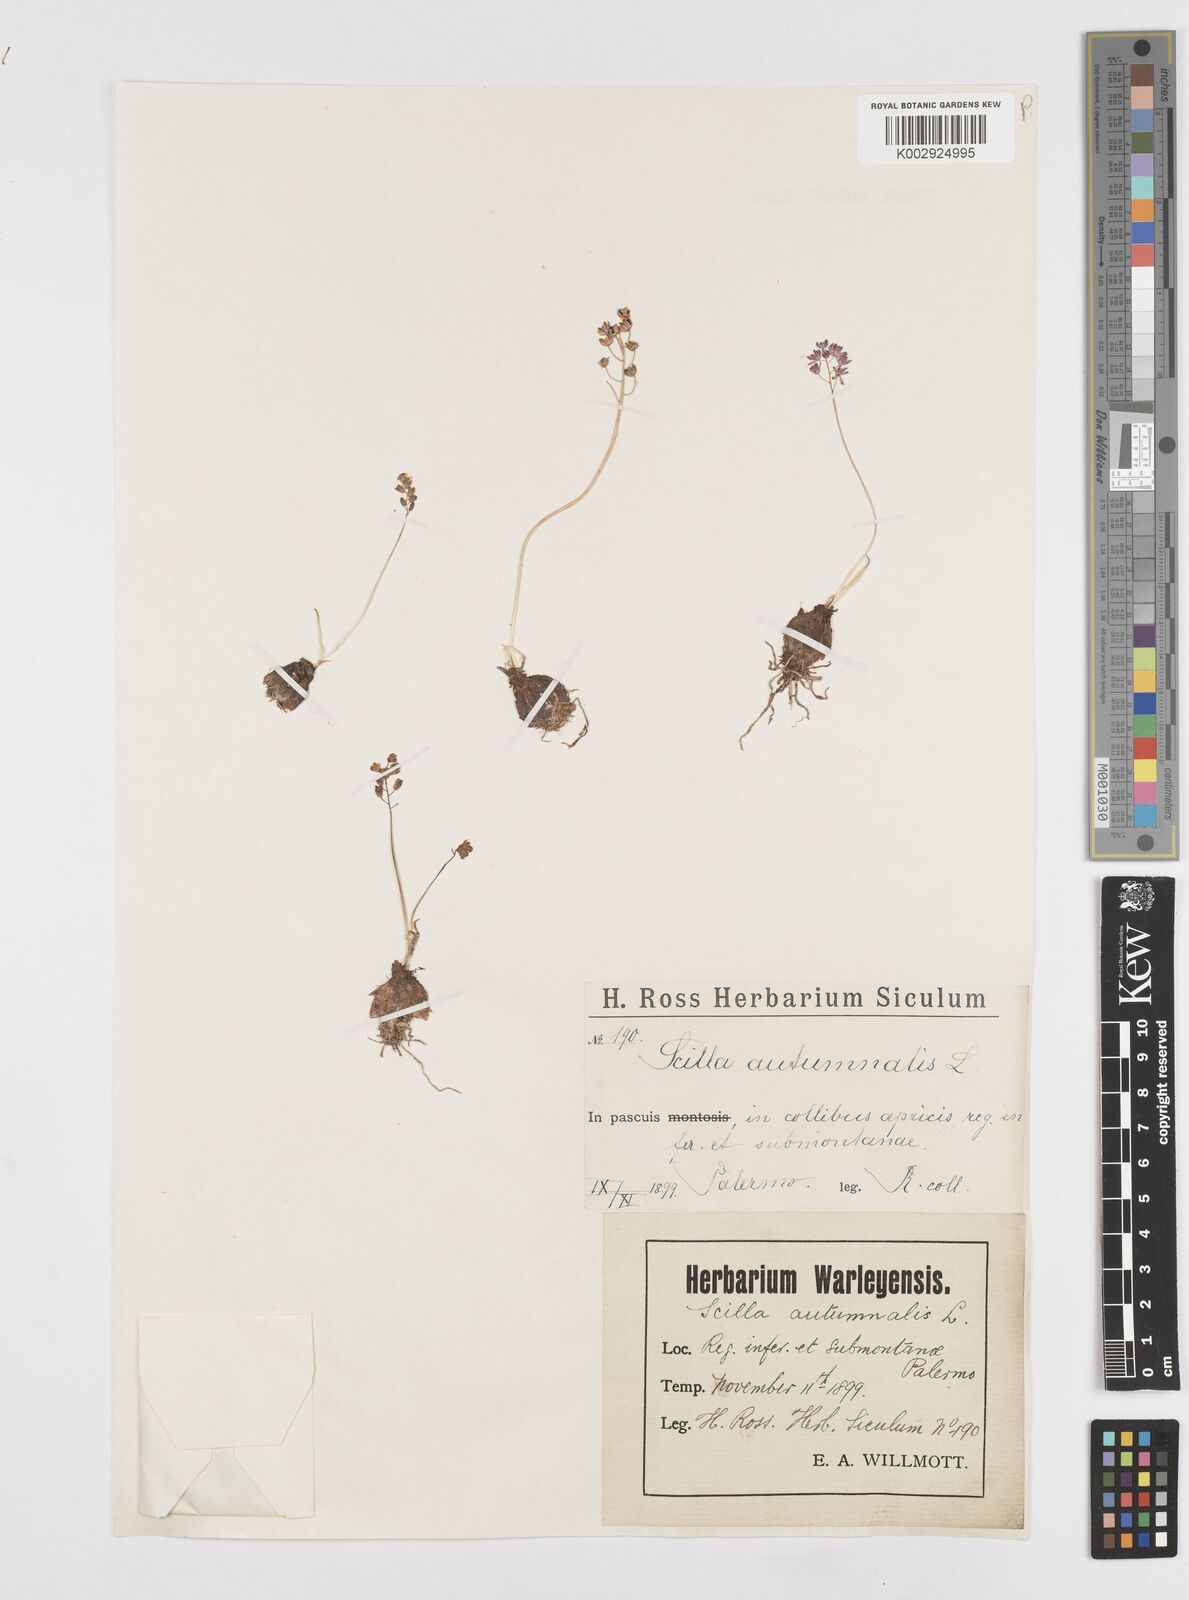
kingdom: Plantae
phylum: Tracheophyta
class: Liliopsida
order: Asparagales
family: Asparagaceae
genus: Prospero
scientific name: Prospero autumnale
